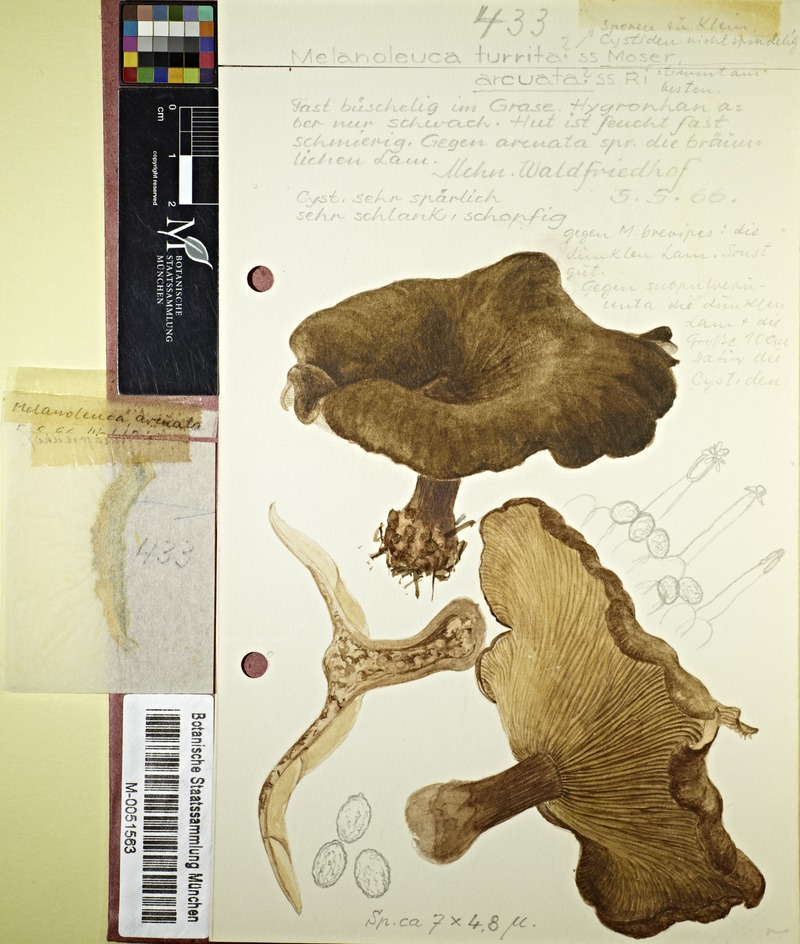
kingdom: Fungi
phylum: Basidiomycota
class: Agaricomycetes
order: Agaricales
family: Tricholomataceae
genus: Melanoleuca
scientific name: Melanoleuca arcuata
